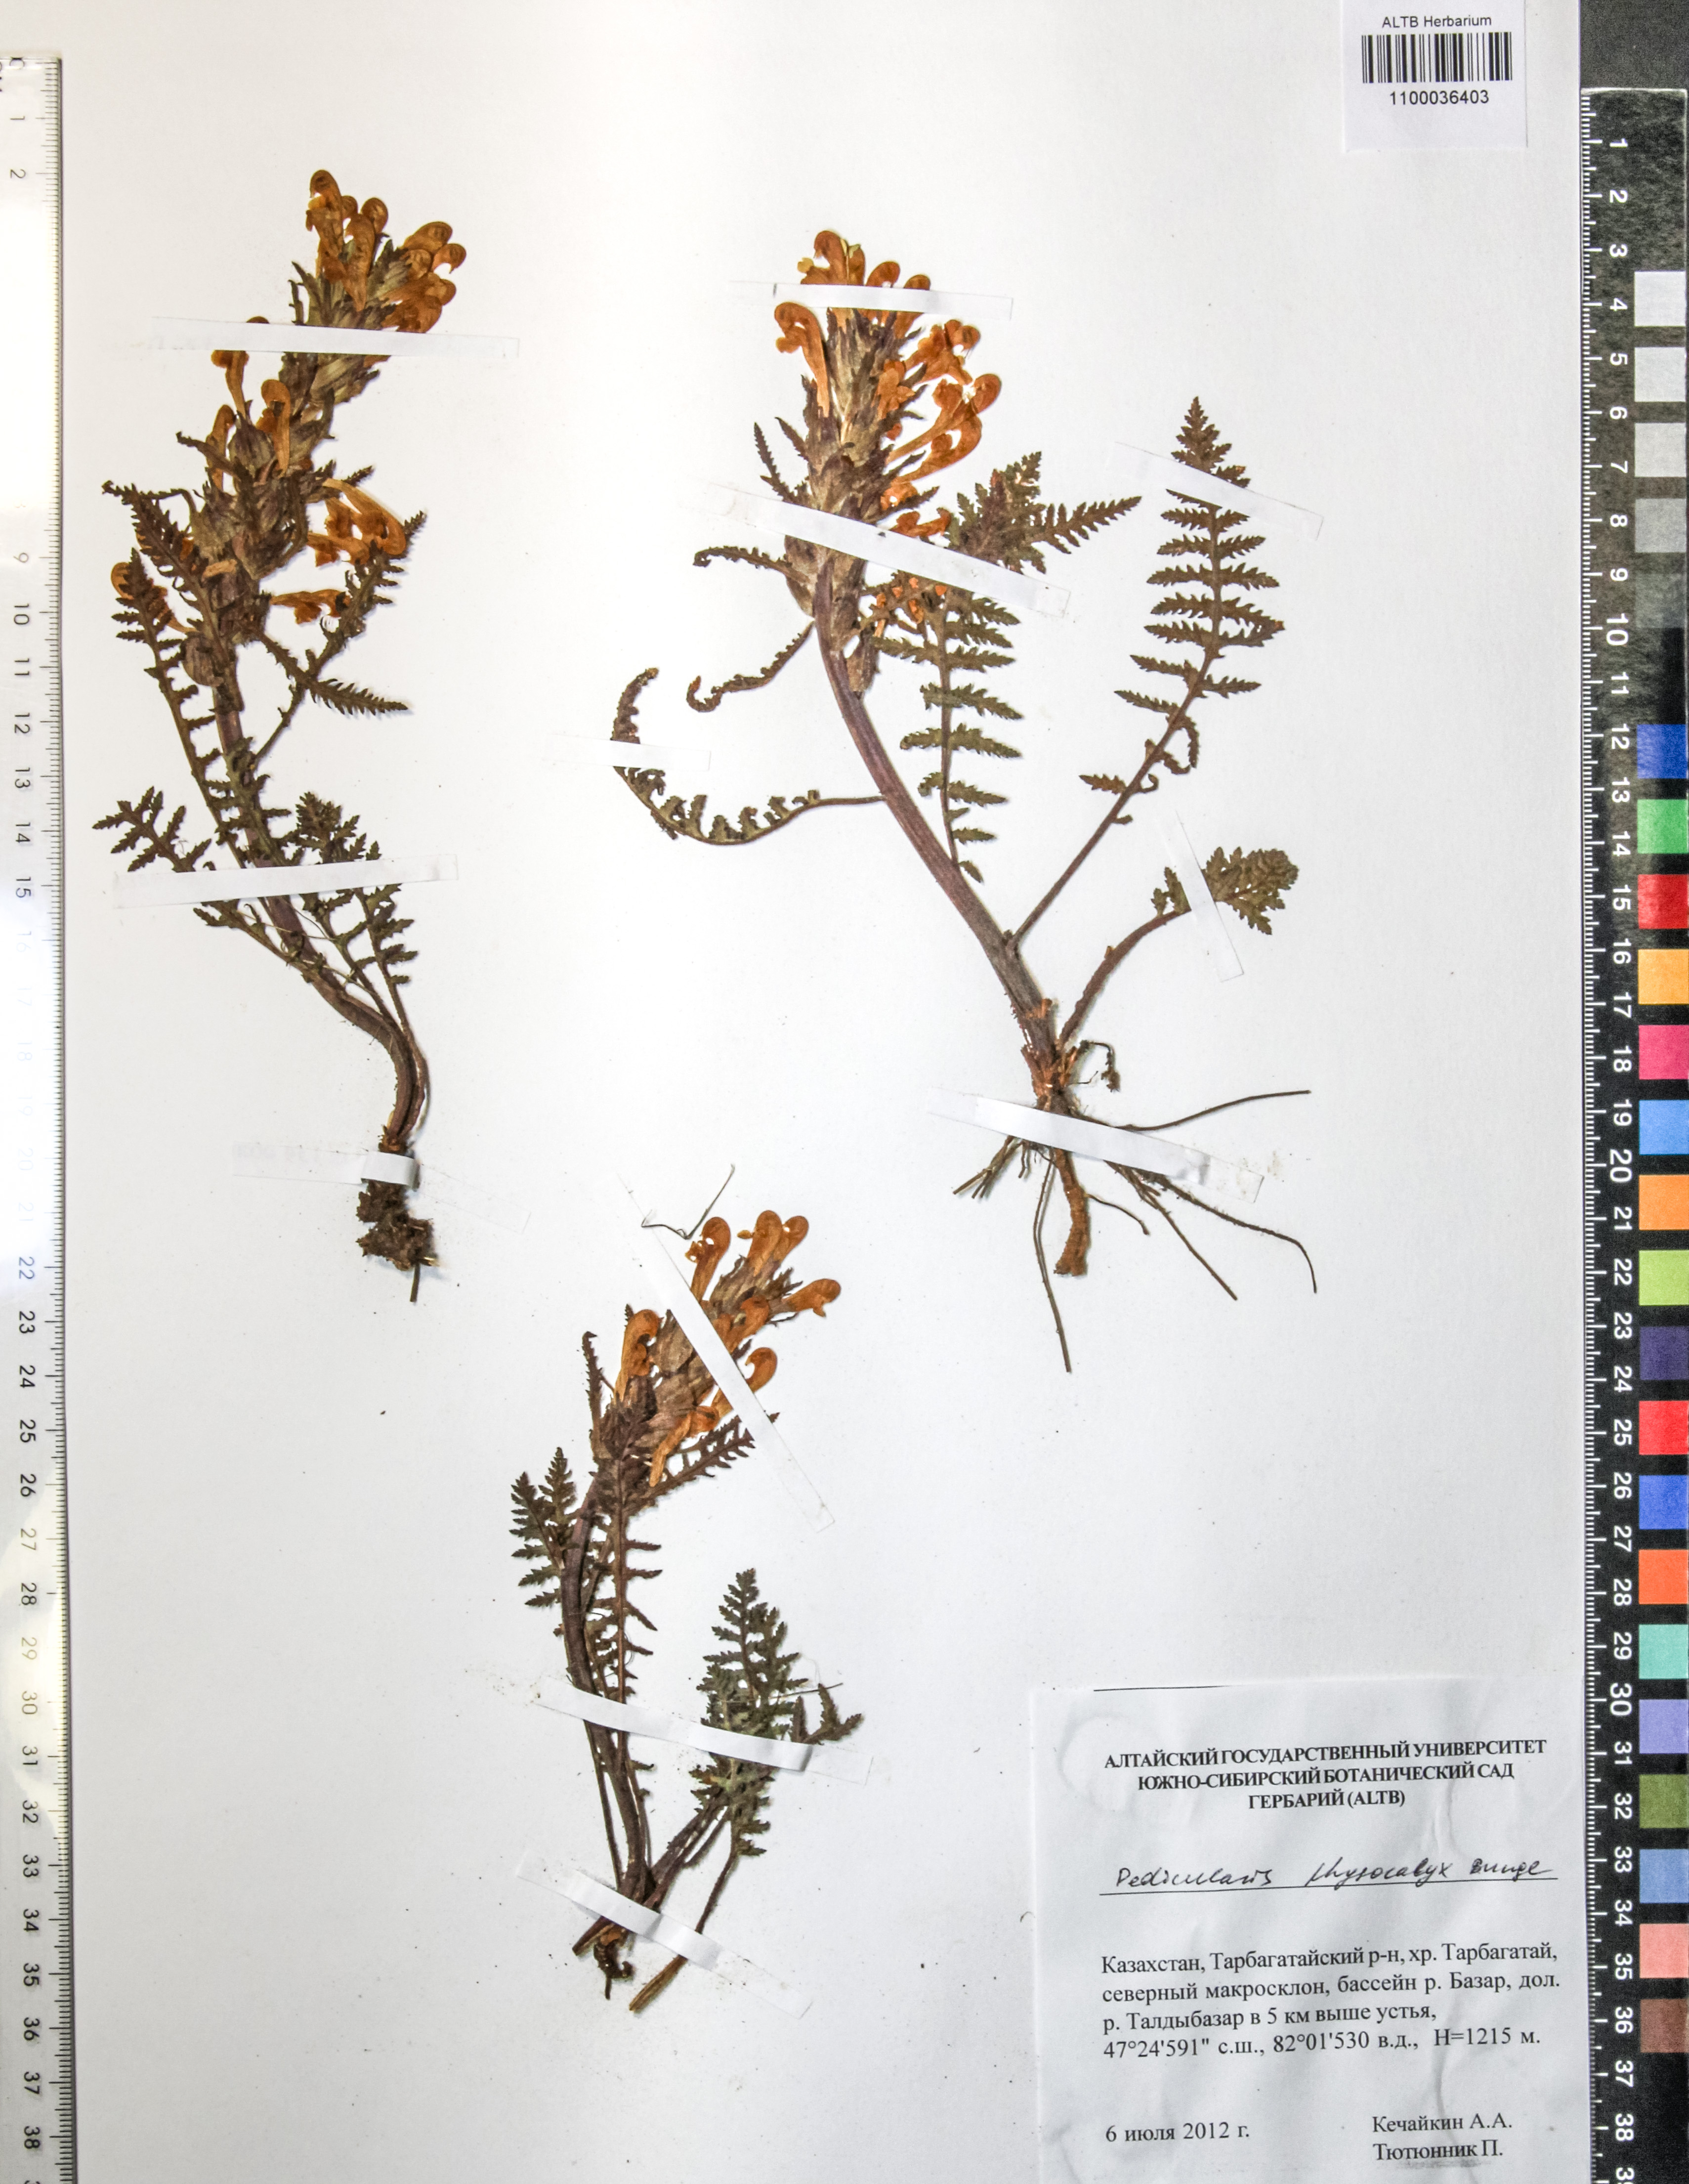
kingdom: Plantae
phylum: Tracheophyta
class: Magnoliopsida
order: Lamiales
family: Orobanchaceae
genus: Pedicularis
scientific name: Pedicularis physocalyx
